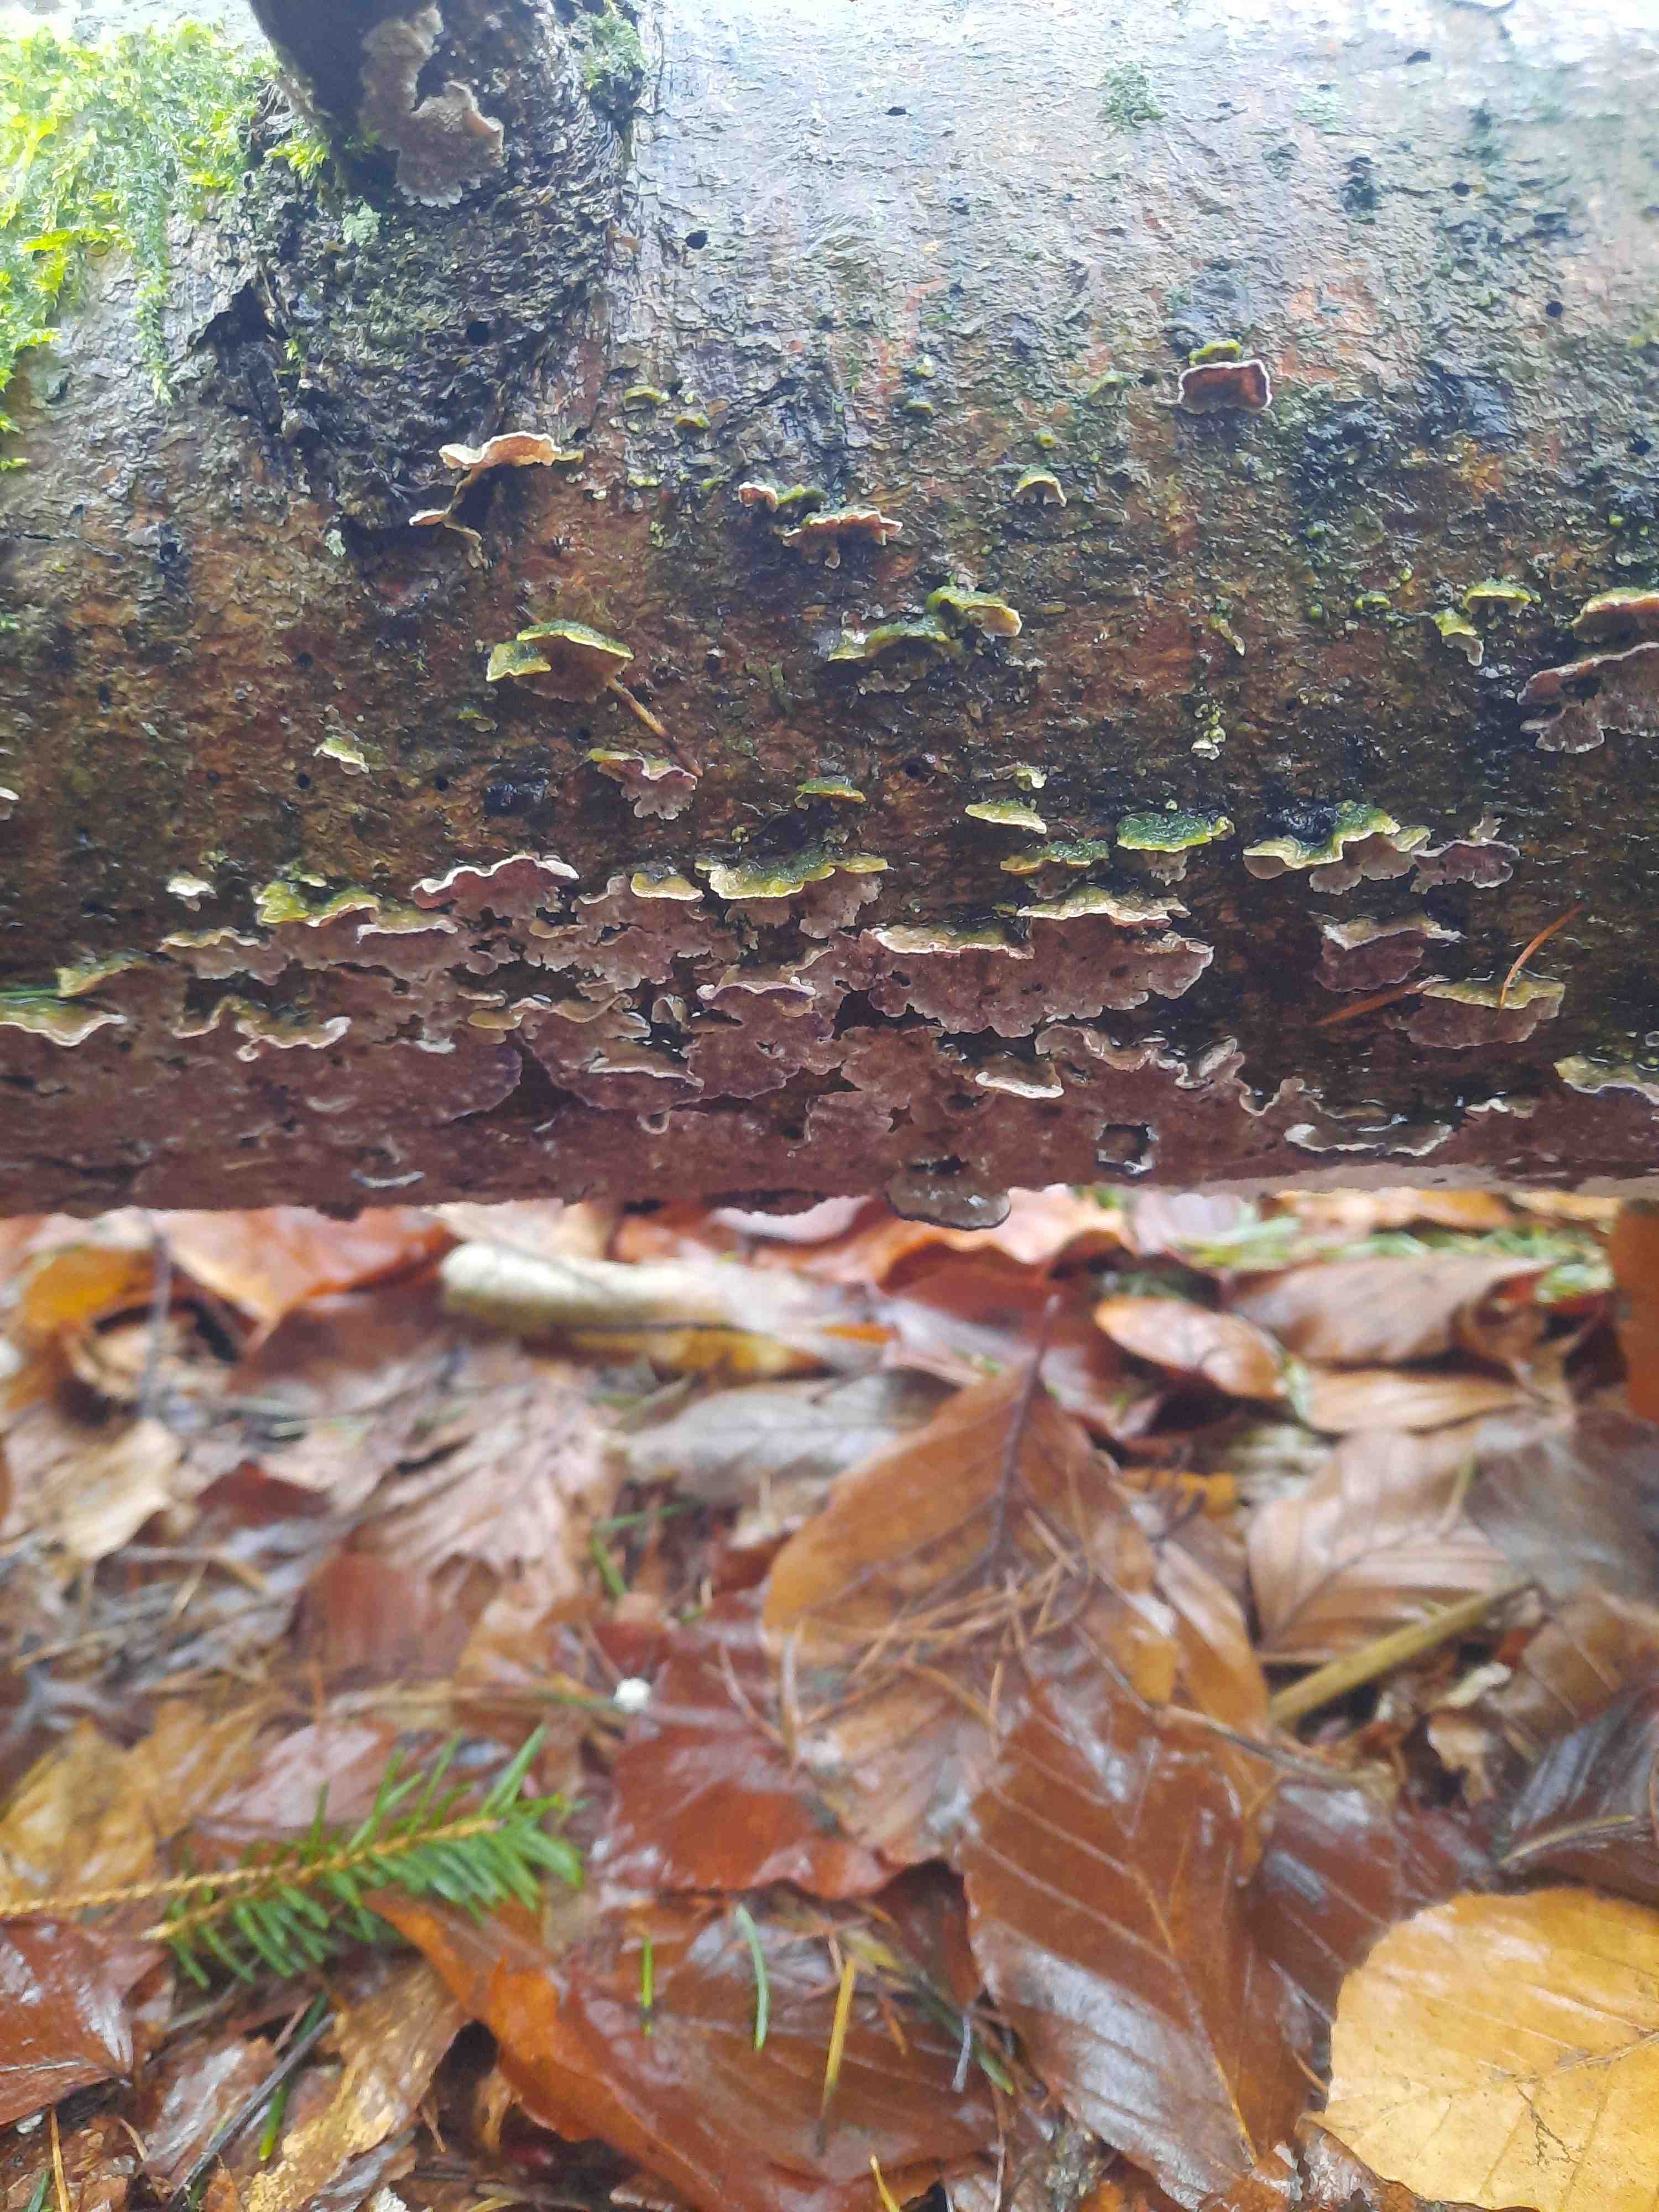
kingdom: Fungi
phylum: Basidiomycota
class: Agaricomycetes
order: Hymenochaetales
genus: Trichaptum
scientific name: Trichaptum abietinum
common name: almindelig violporesvamp
